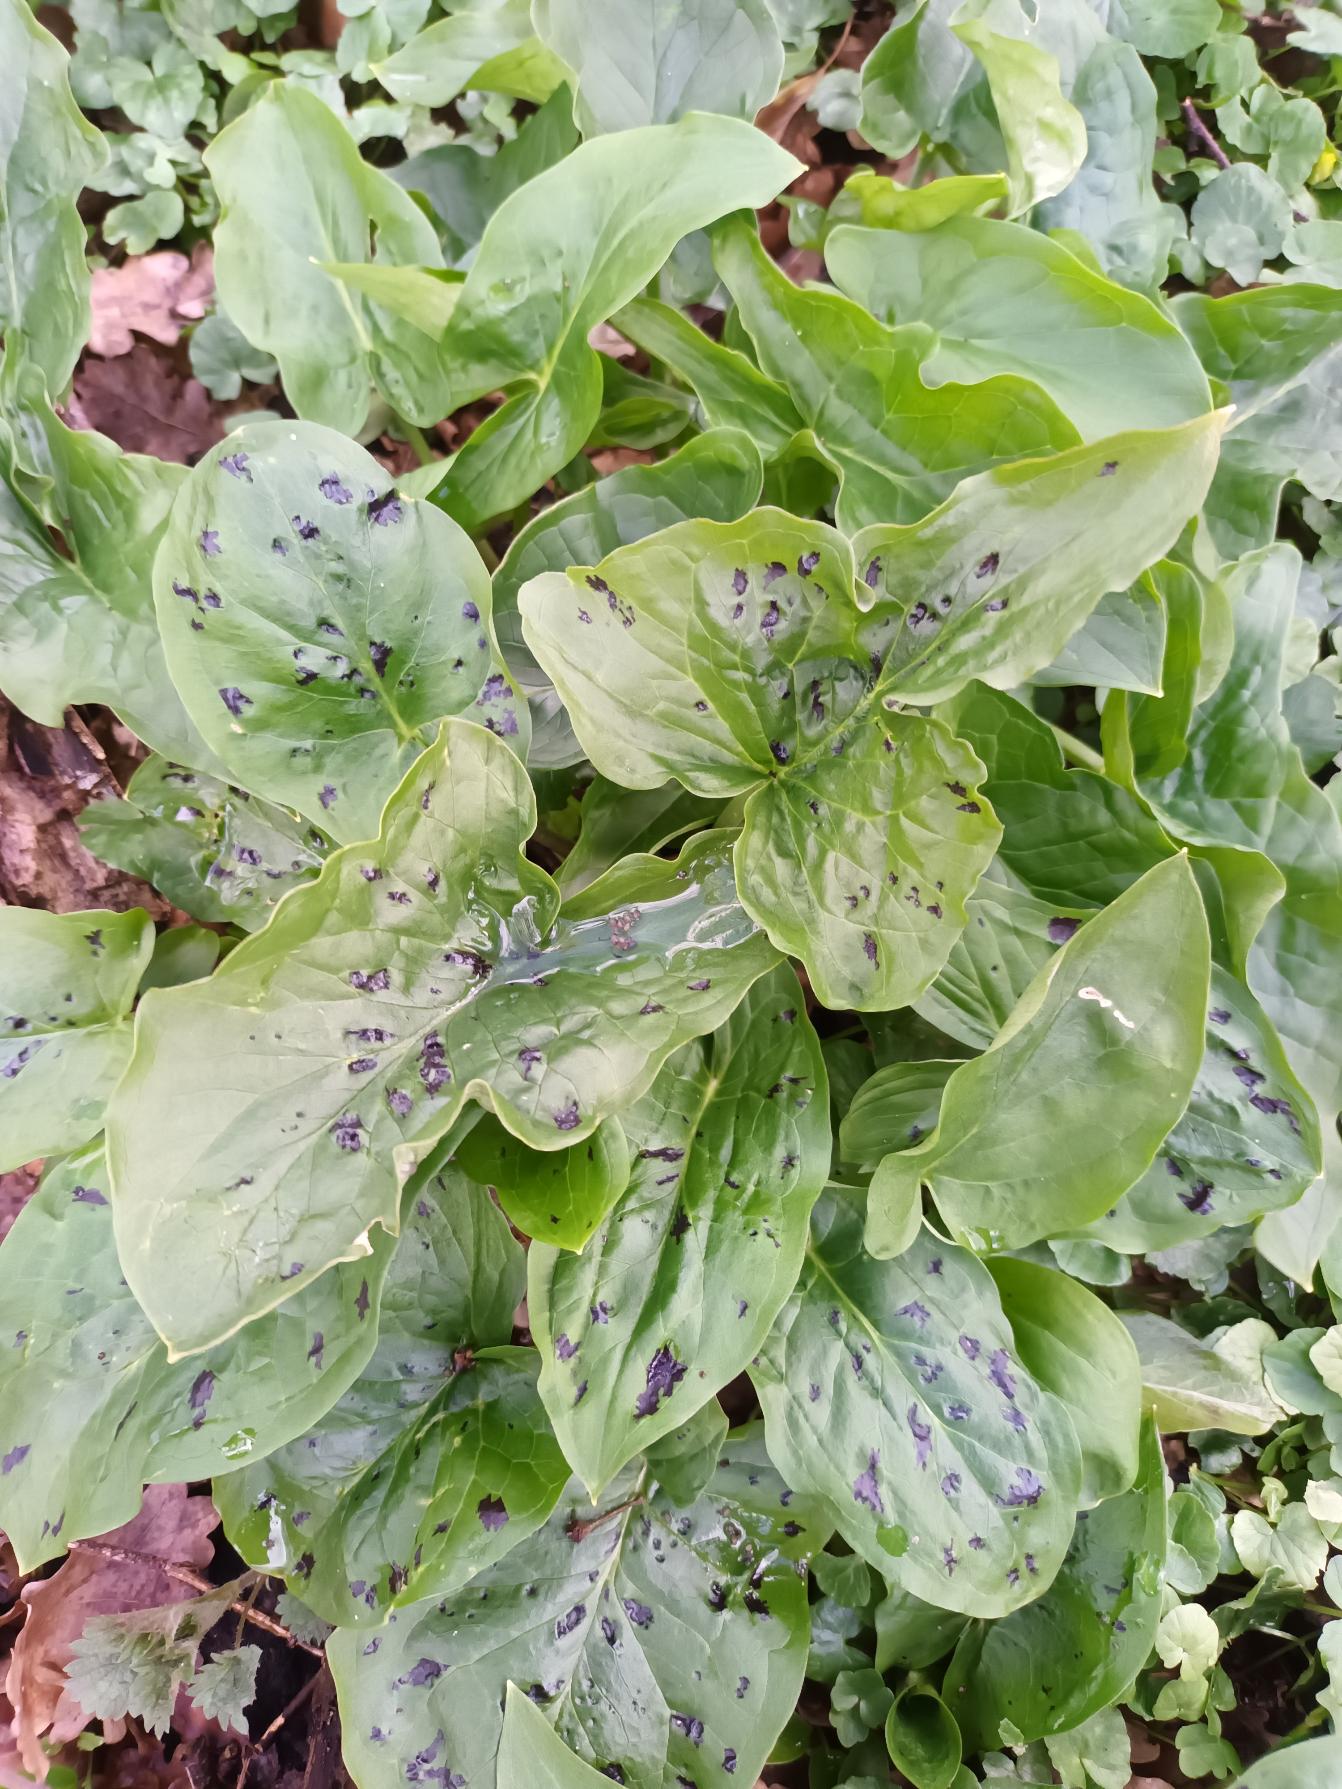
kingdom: Plantae
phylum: Tracheophyta
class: Liliopsida
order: Alismatales
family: Araceae
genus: Arum
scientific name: Arum maculatum
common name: Plettet arum
